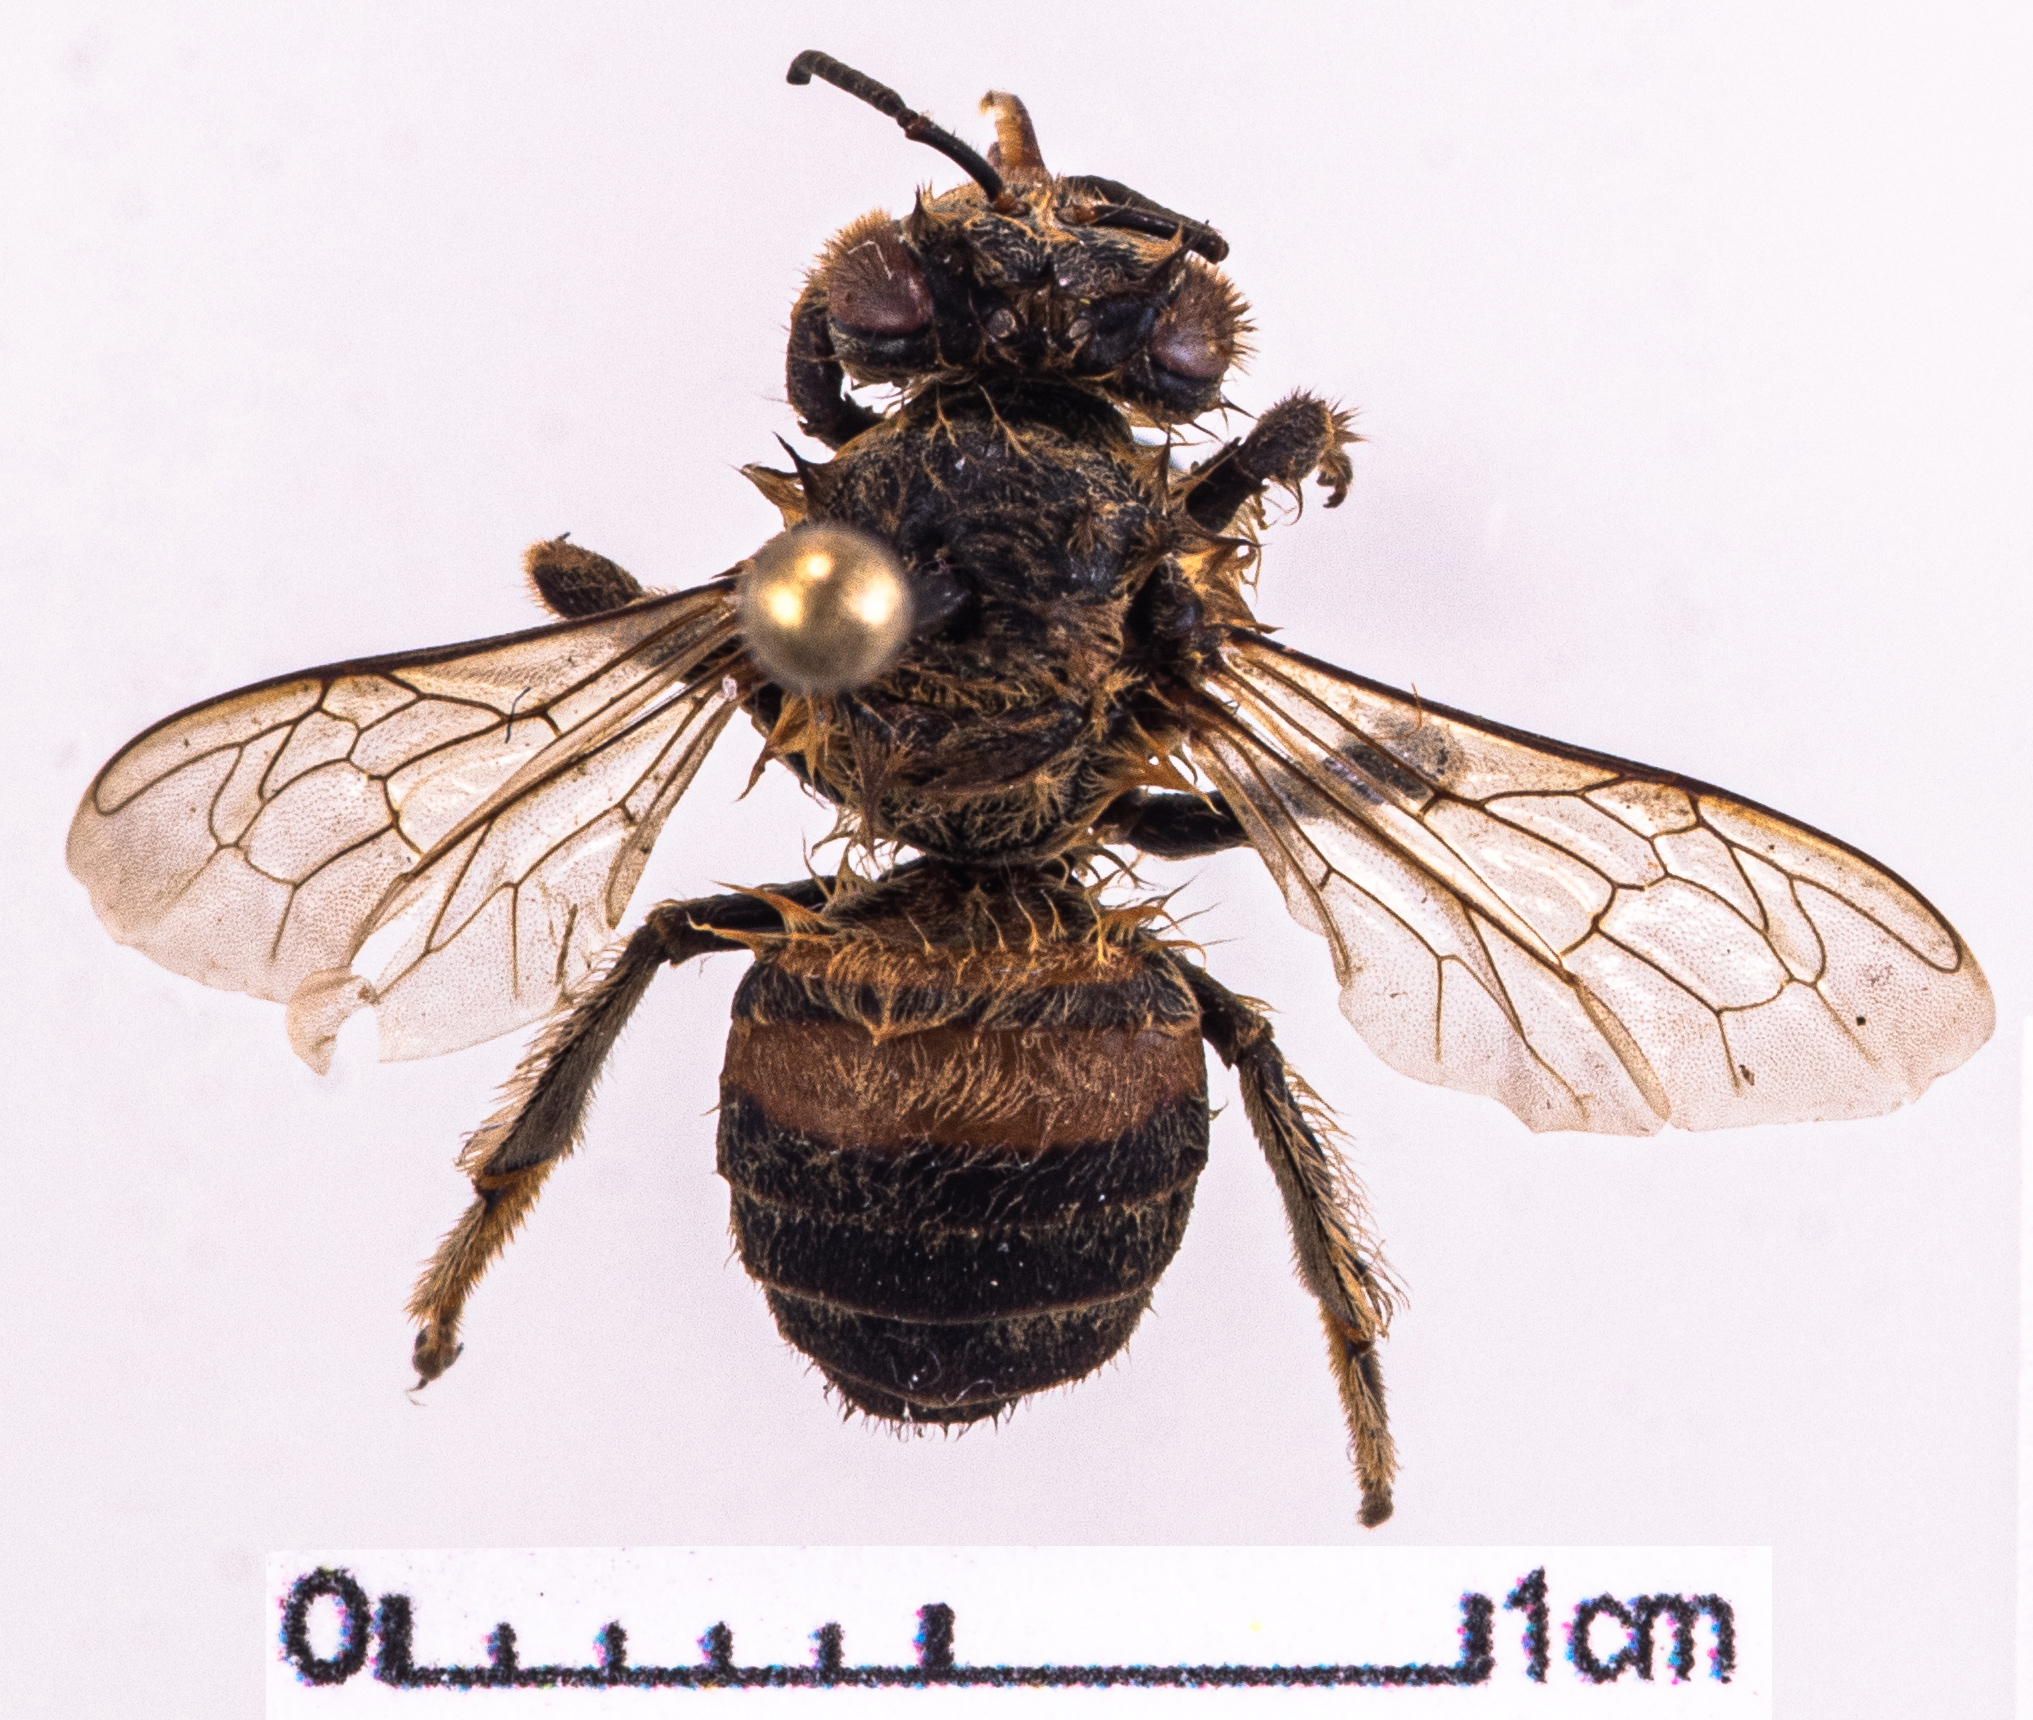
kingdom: Animalia
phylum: Arthropoda
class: Insecta
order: Hymenoptera
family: Apidae
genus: Apis
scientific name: Apis mellifera
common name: Honey bee
